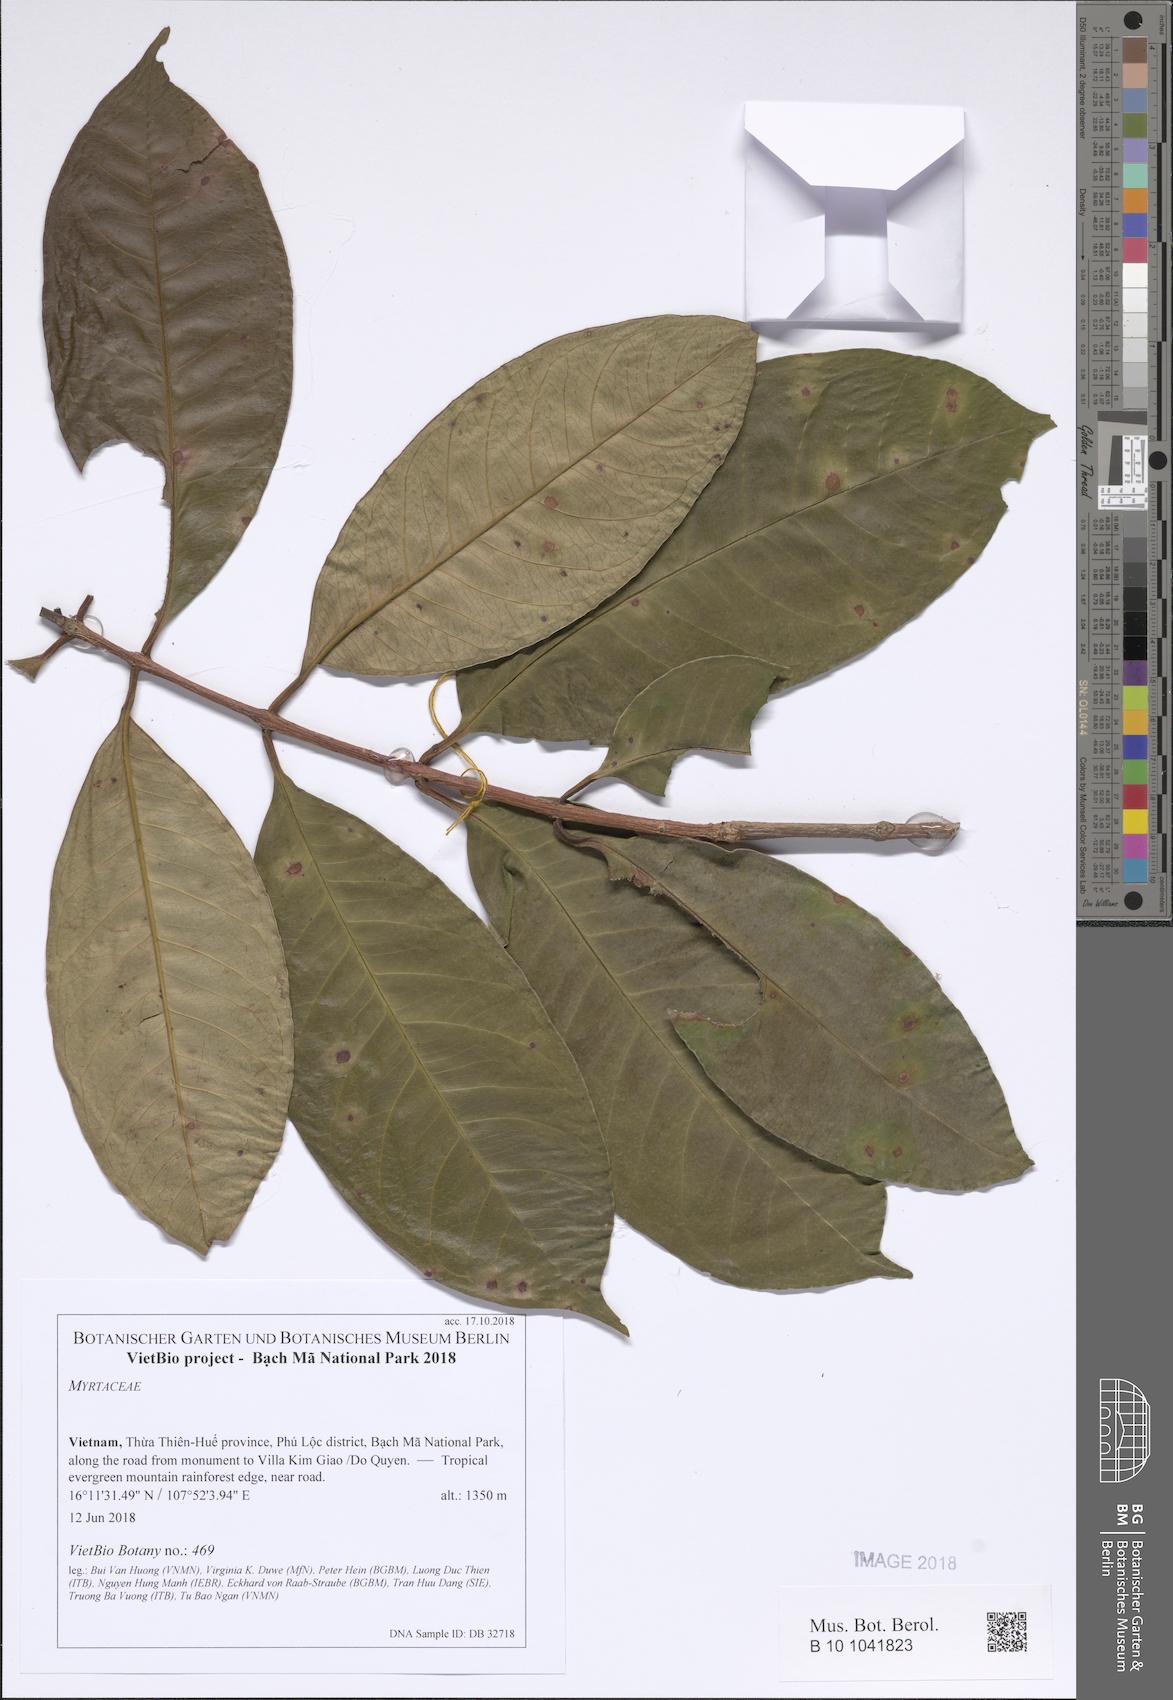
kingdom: Plantae
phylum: Tracheophyta
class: Magnoliopsida
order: Myrtales
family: Myrtaceae
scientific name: Myrtaceae
